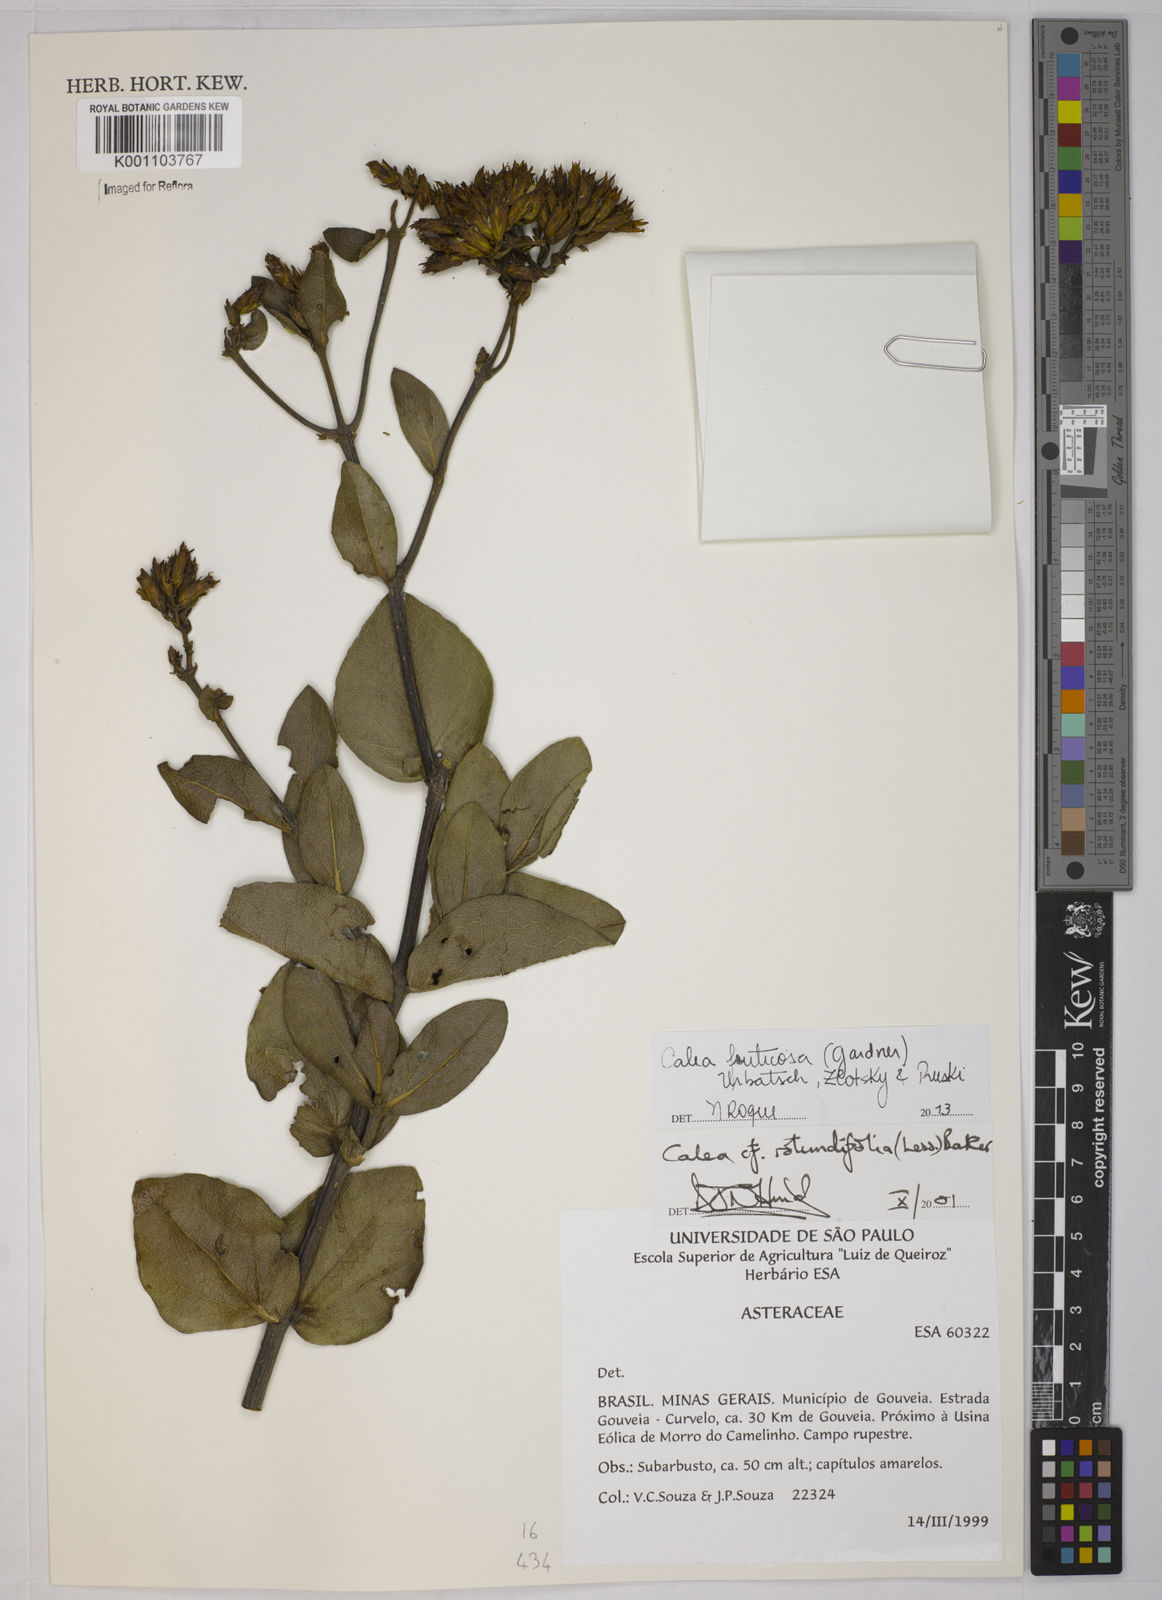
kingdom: Plantae
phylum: Tracheophyta
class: Magnoliopsida
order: Asterales
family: Asteraceae
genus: Calea
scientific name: Calea rotundifolia
